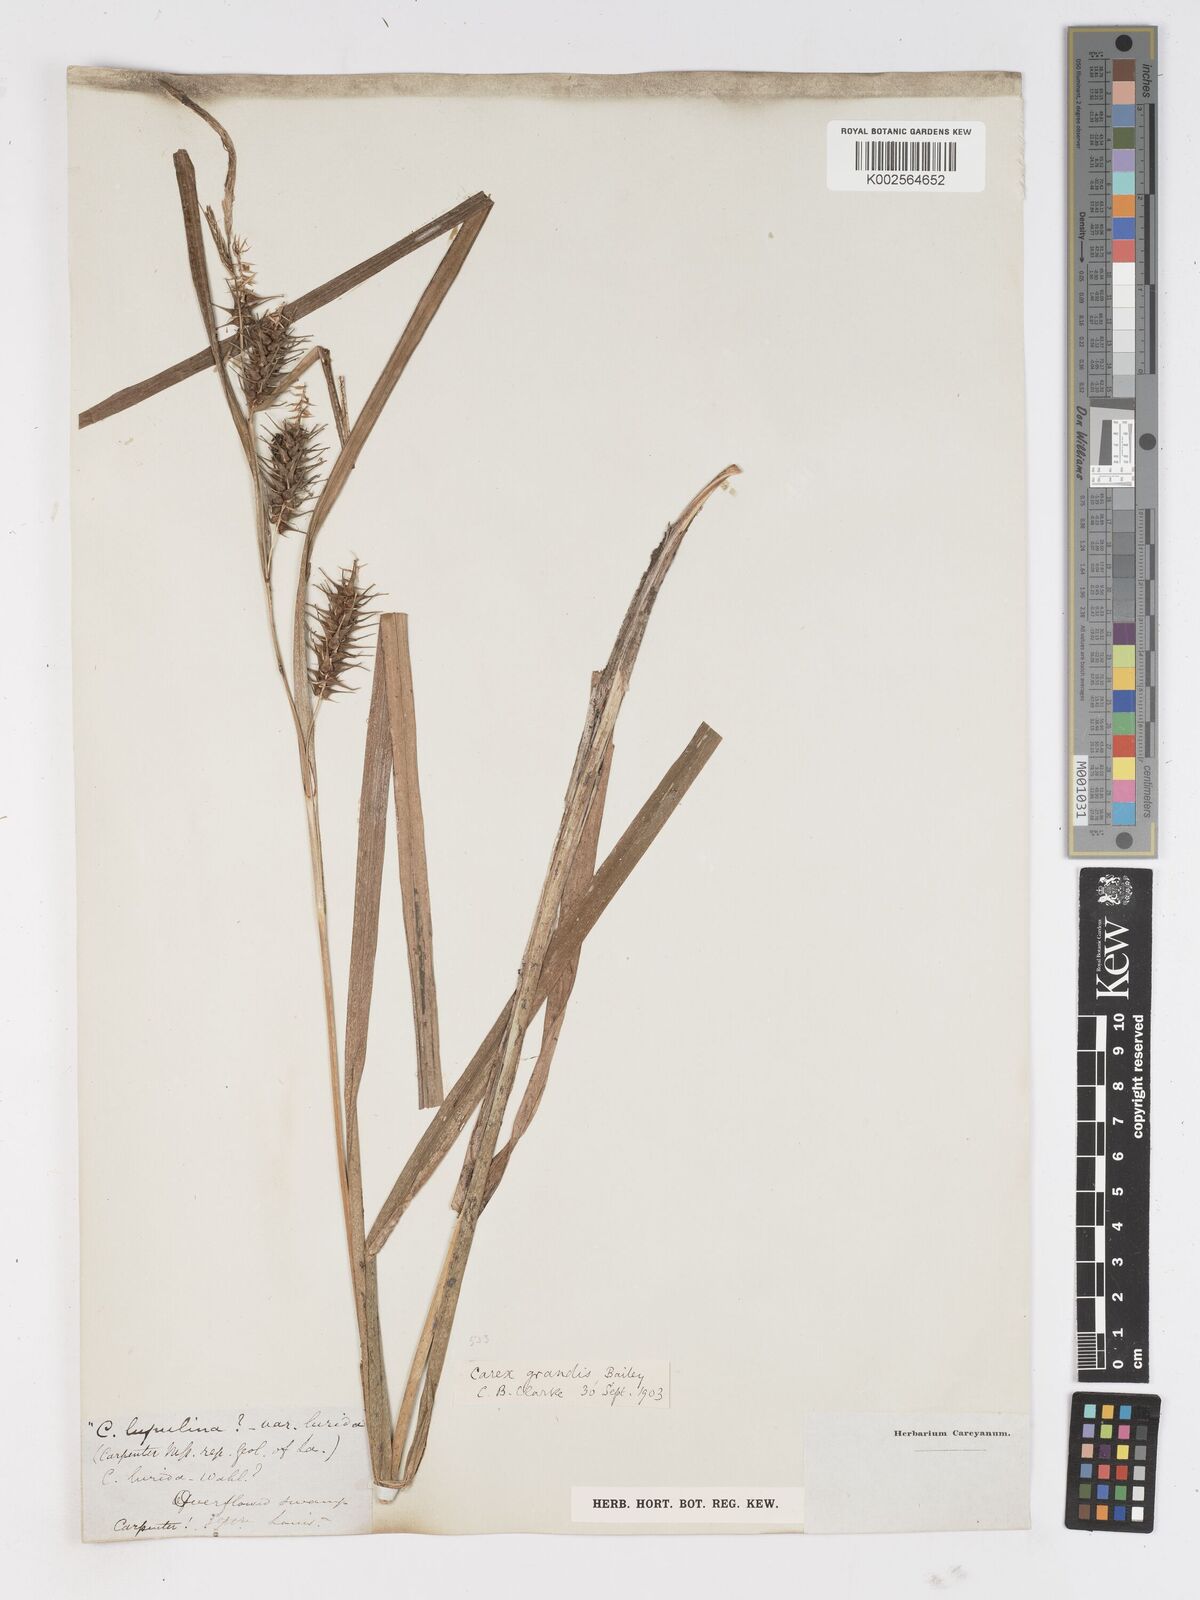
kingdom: Plantae
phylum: Tracheophyta
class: Liliopsida
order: Poales
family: Cyperaceae
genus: Carex
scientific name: Carex gigantea
